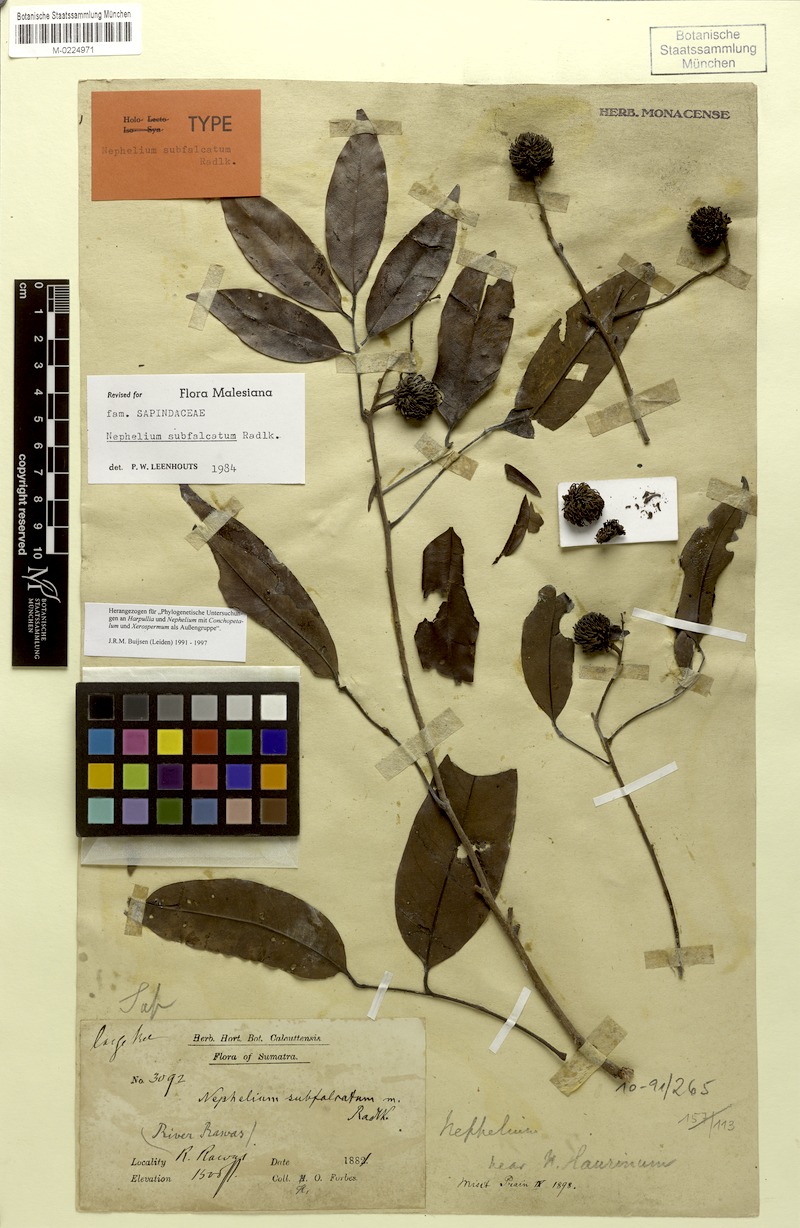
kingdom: Plantae
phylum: Tracheophyta
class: Magnoliopsida
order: Sapindales
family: Sapindaceae
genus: Nephelium
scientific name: Nephelium subfalcatum
